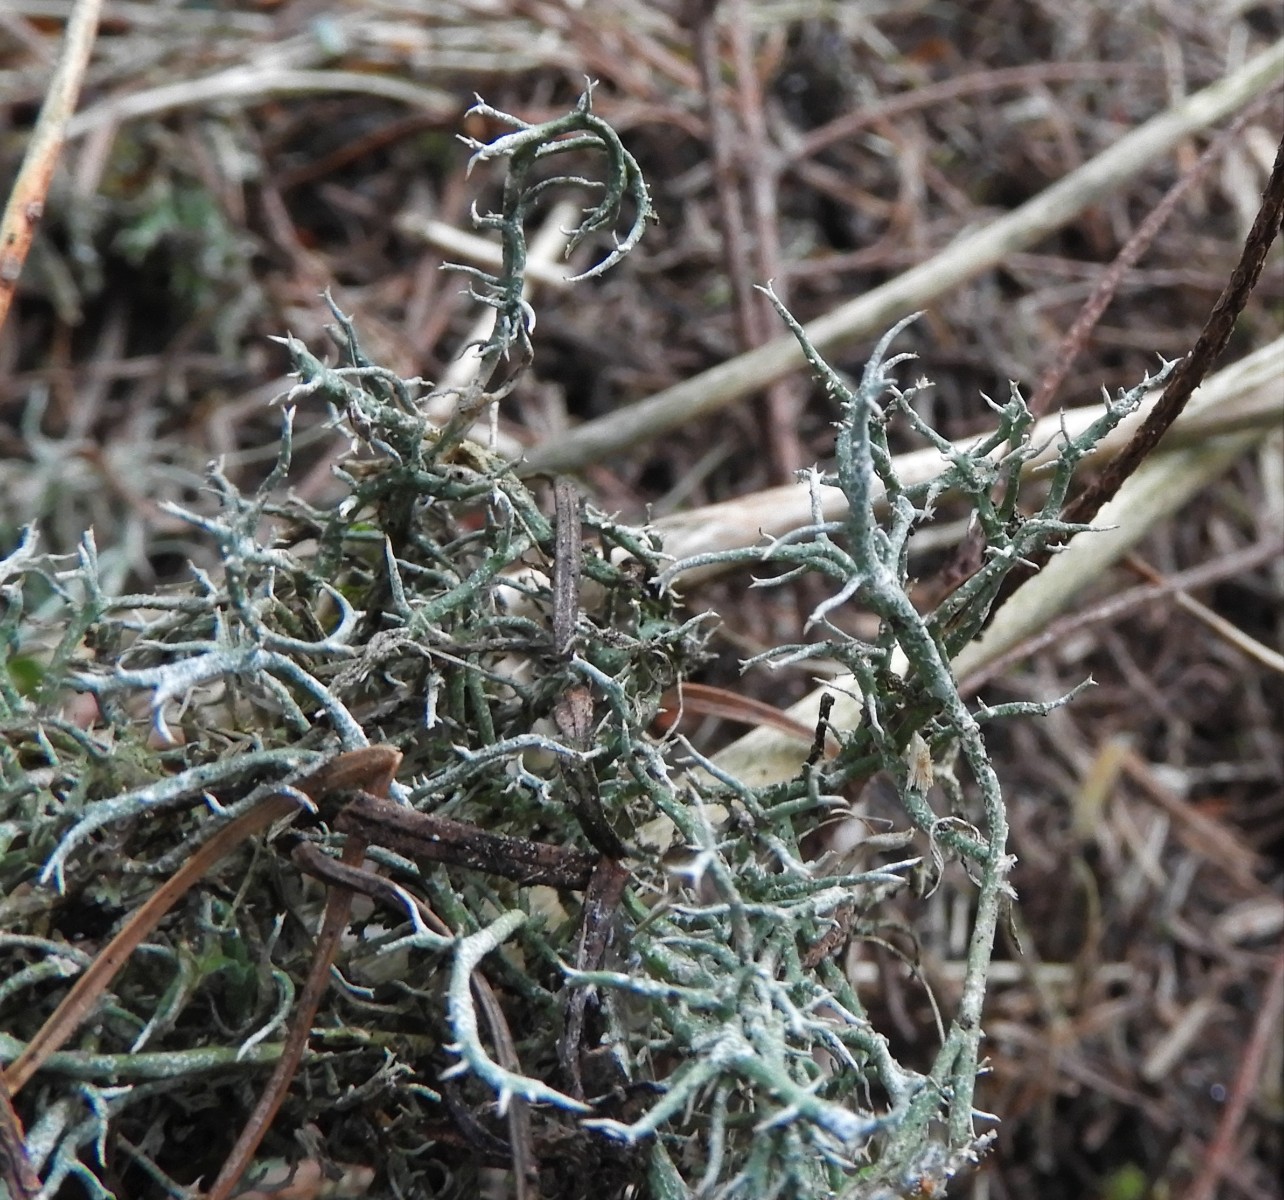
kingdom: Fungi
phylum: Ascomycota
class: Lecanoromycetes
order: Lecanorales
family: Cladoniaceae
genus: Cladonia
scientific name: Cladonia furcata
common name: kløftet bægerlav
